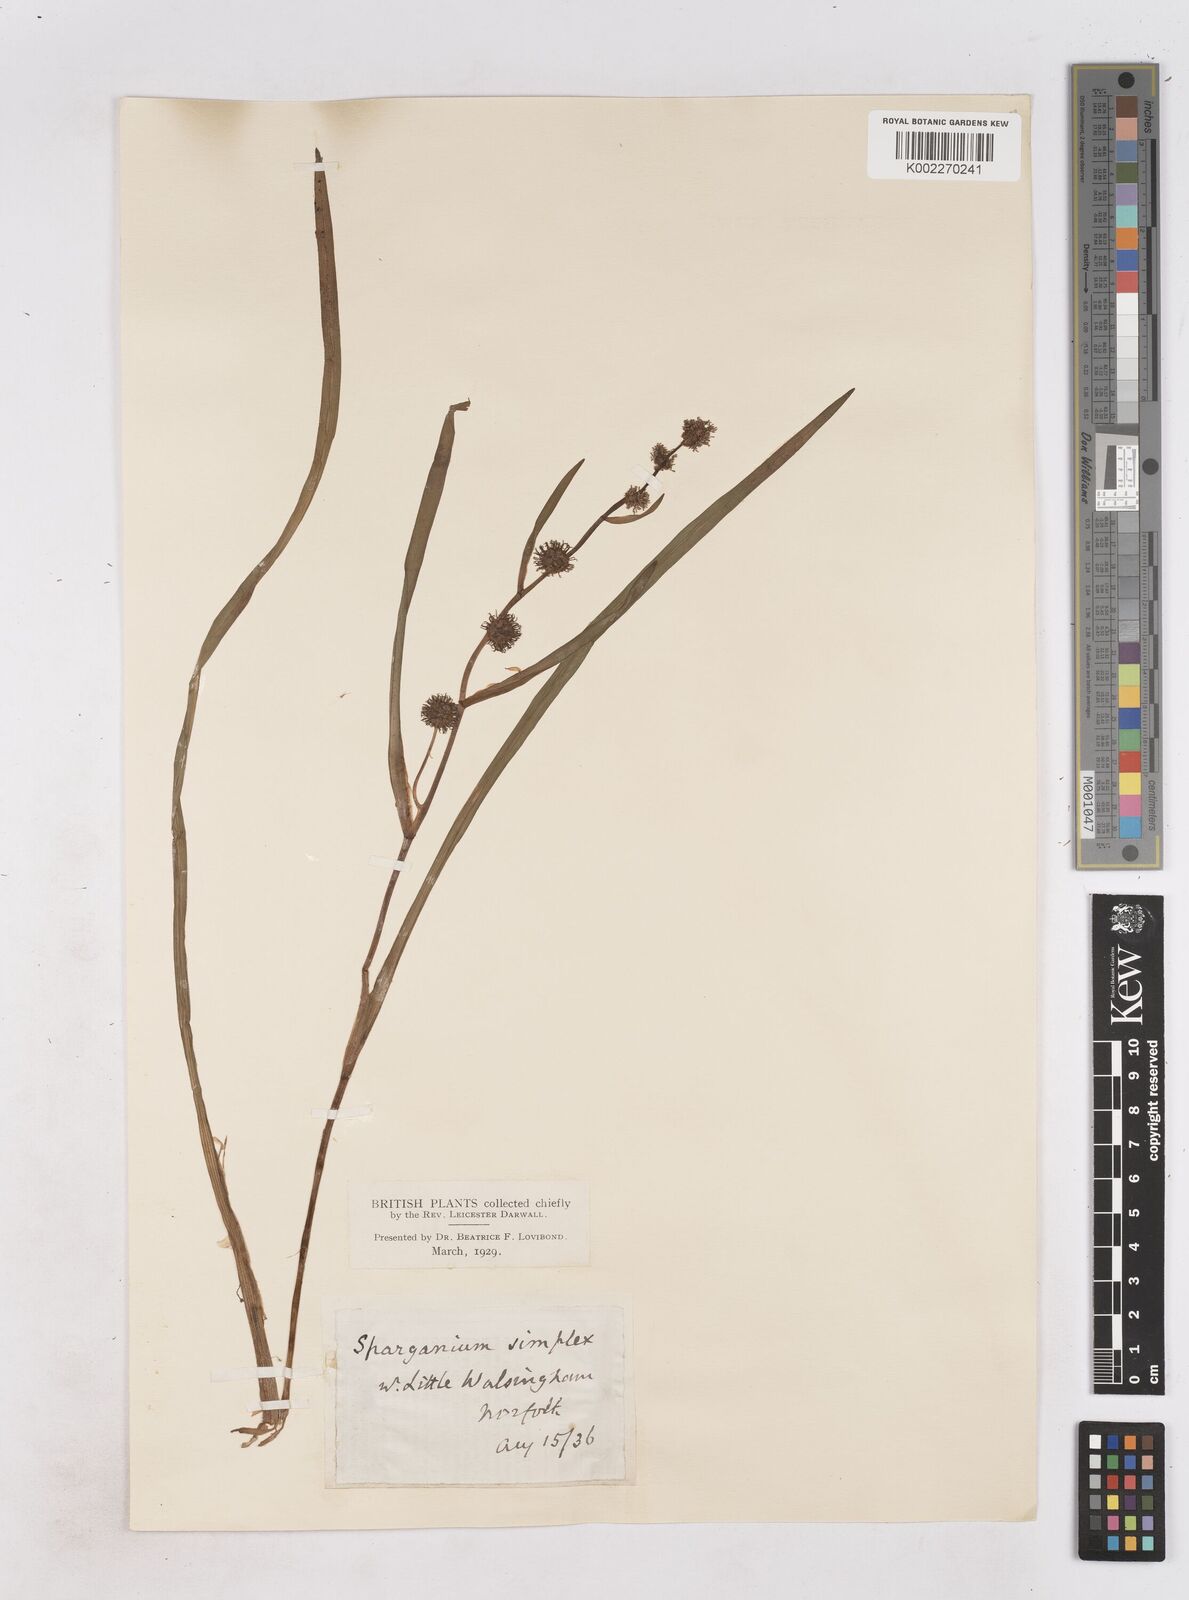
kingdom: Plantae
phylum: Tracheophyta
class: Liliopsida
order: Poales
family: Typhaceae
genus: Sparganium
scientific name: Sparganium emersum
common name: Unbranched bur-reed
